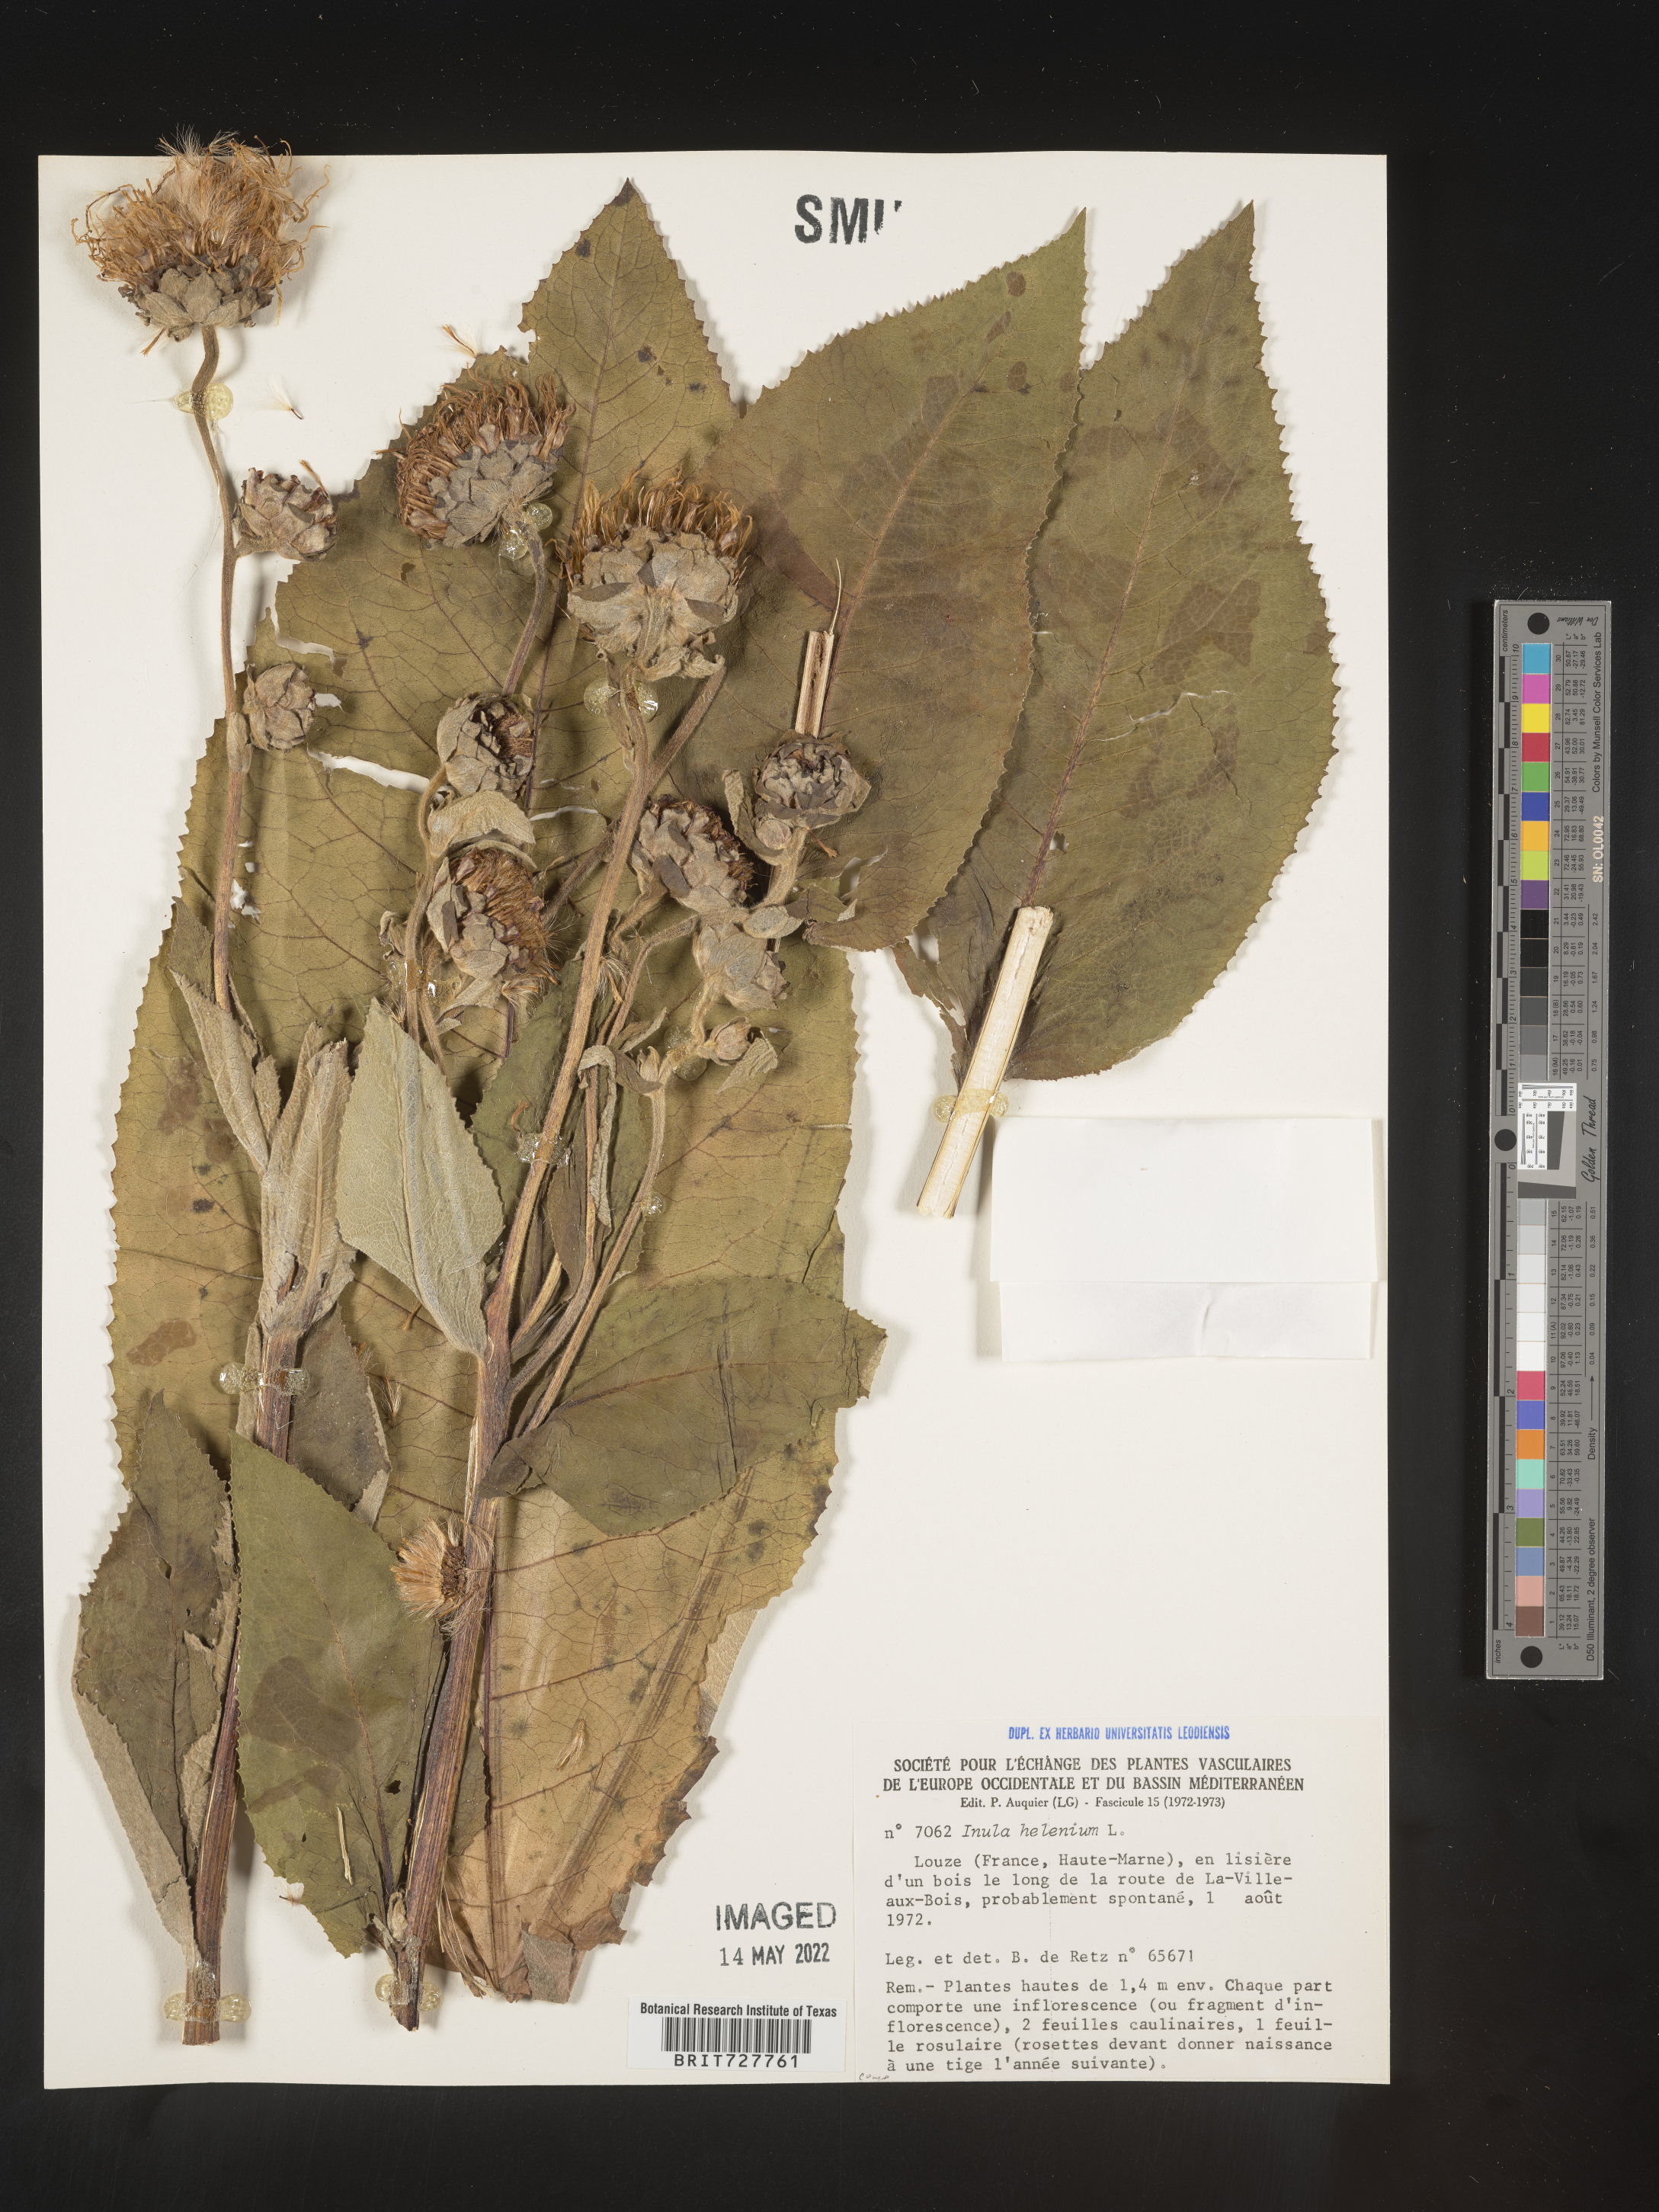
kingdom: Plantae
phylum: Tracheophyta
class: Magnoliopsida
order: Asterales
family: Asteraceae
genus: Inula
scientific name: Inula
